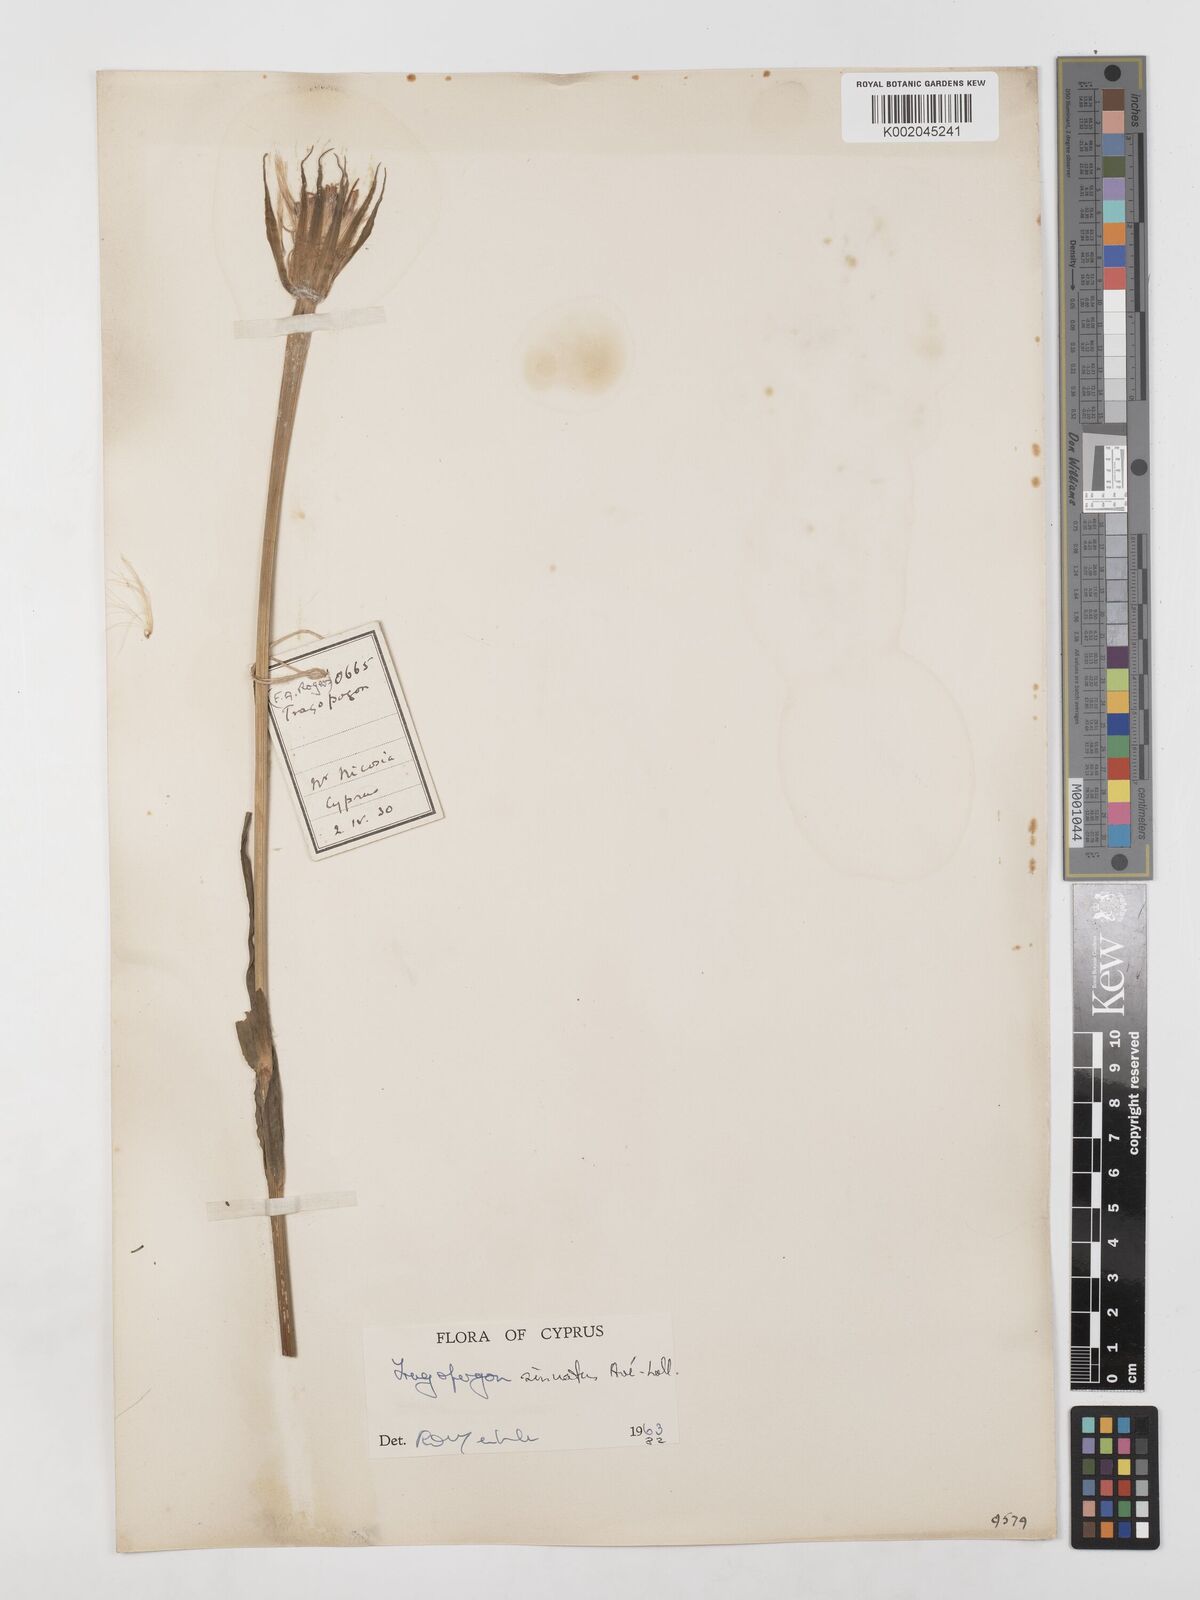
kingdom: Plantae
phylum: Tracheophyta
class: Magnoliopsida
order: Asterales
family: Asteraceae
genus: Tragopogon
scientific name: Tragopogon porrifolius
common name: Salsify
